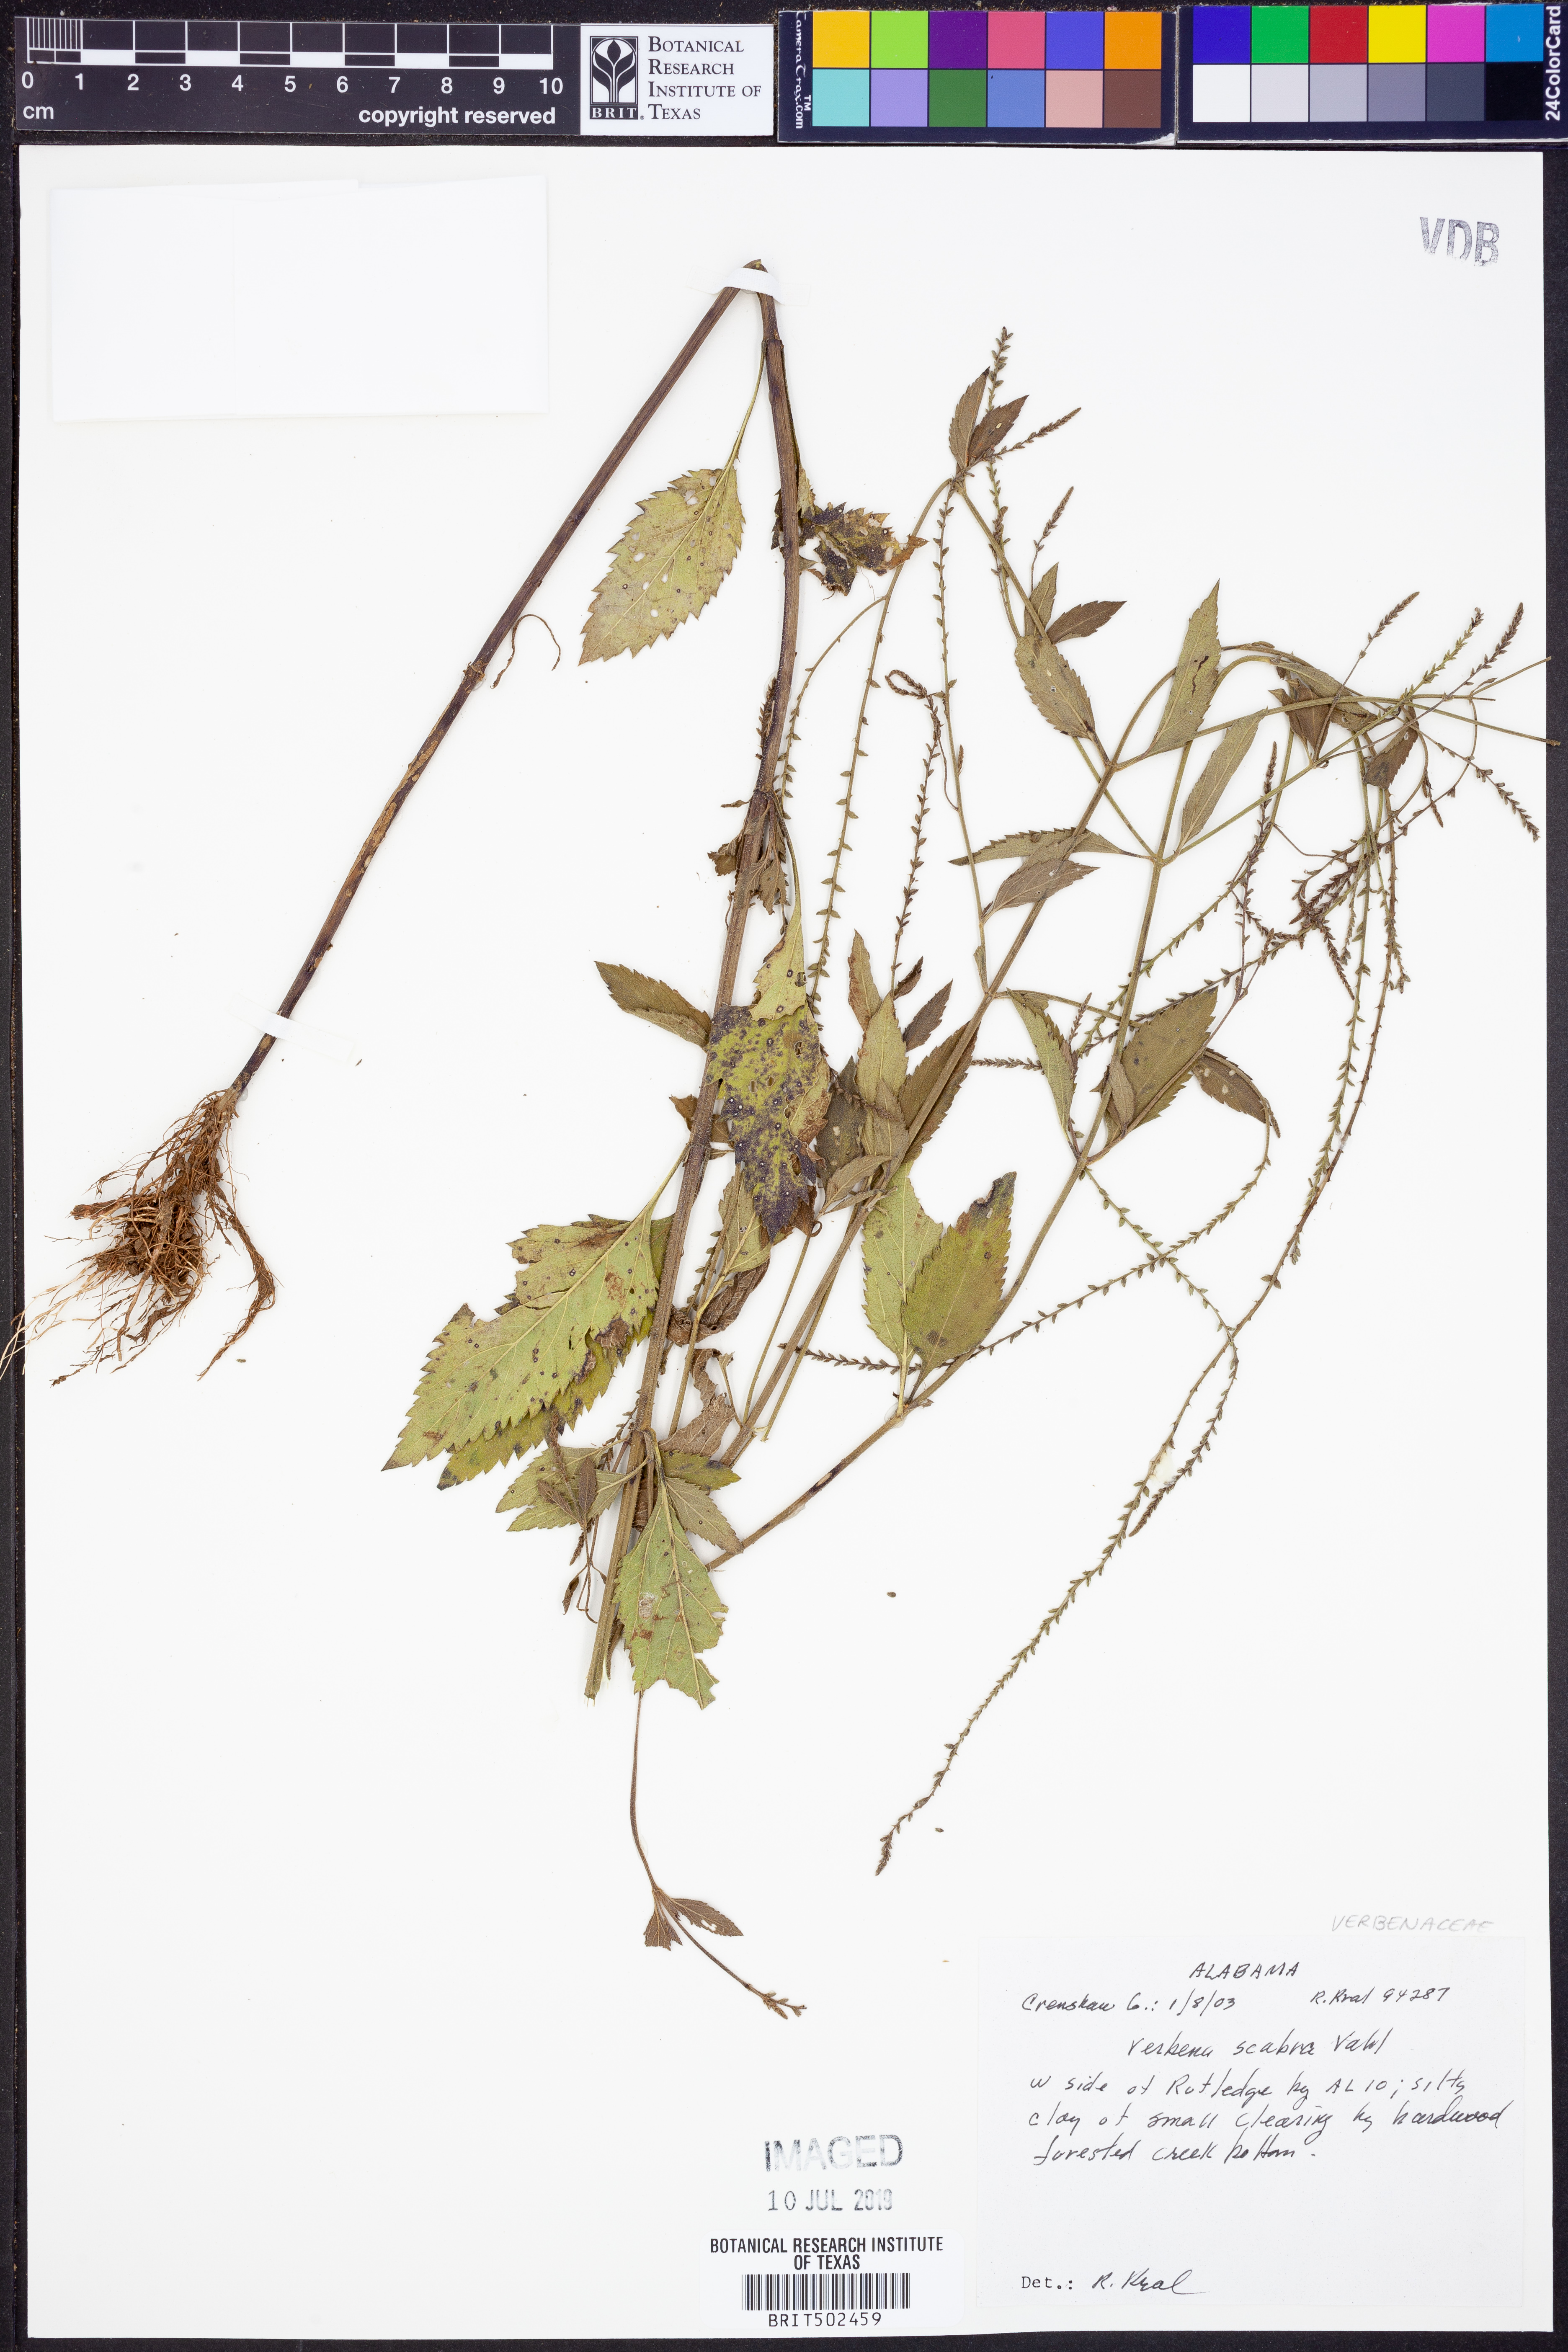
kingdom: Plantae
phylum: Tracheophyta
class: Magnoliopsida
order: Lamiales
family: Verbenaceae
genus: Verbena
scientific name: Verbena scabra
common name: Sandpaper vervain
